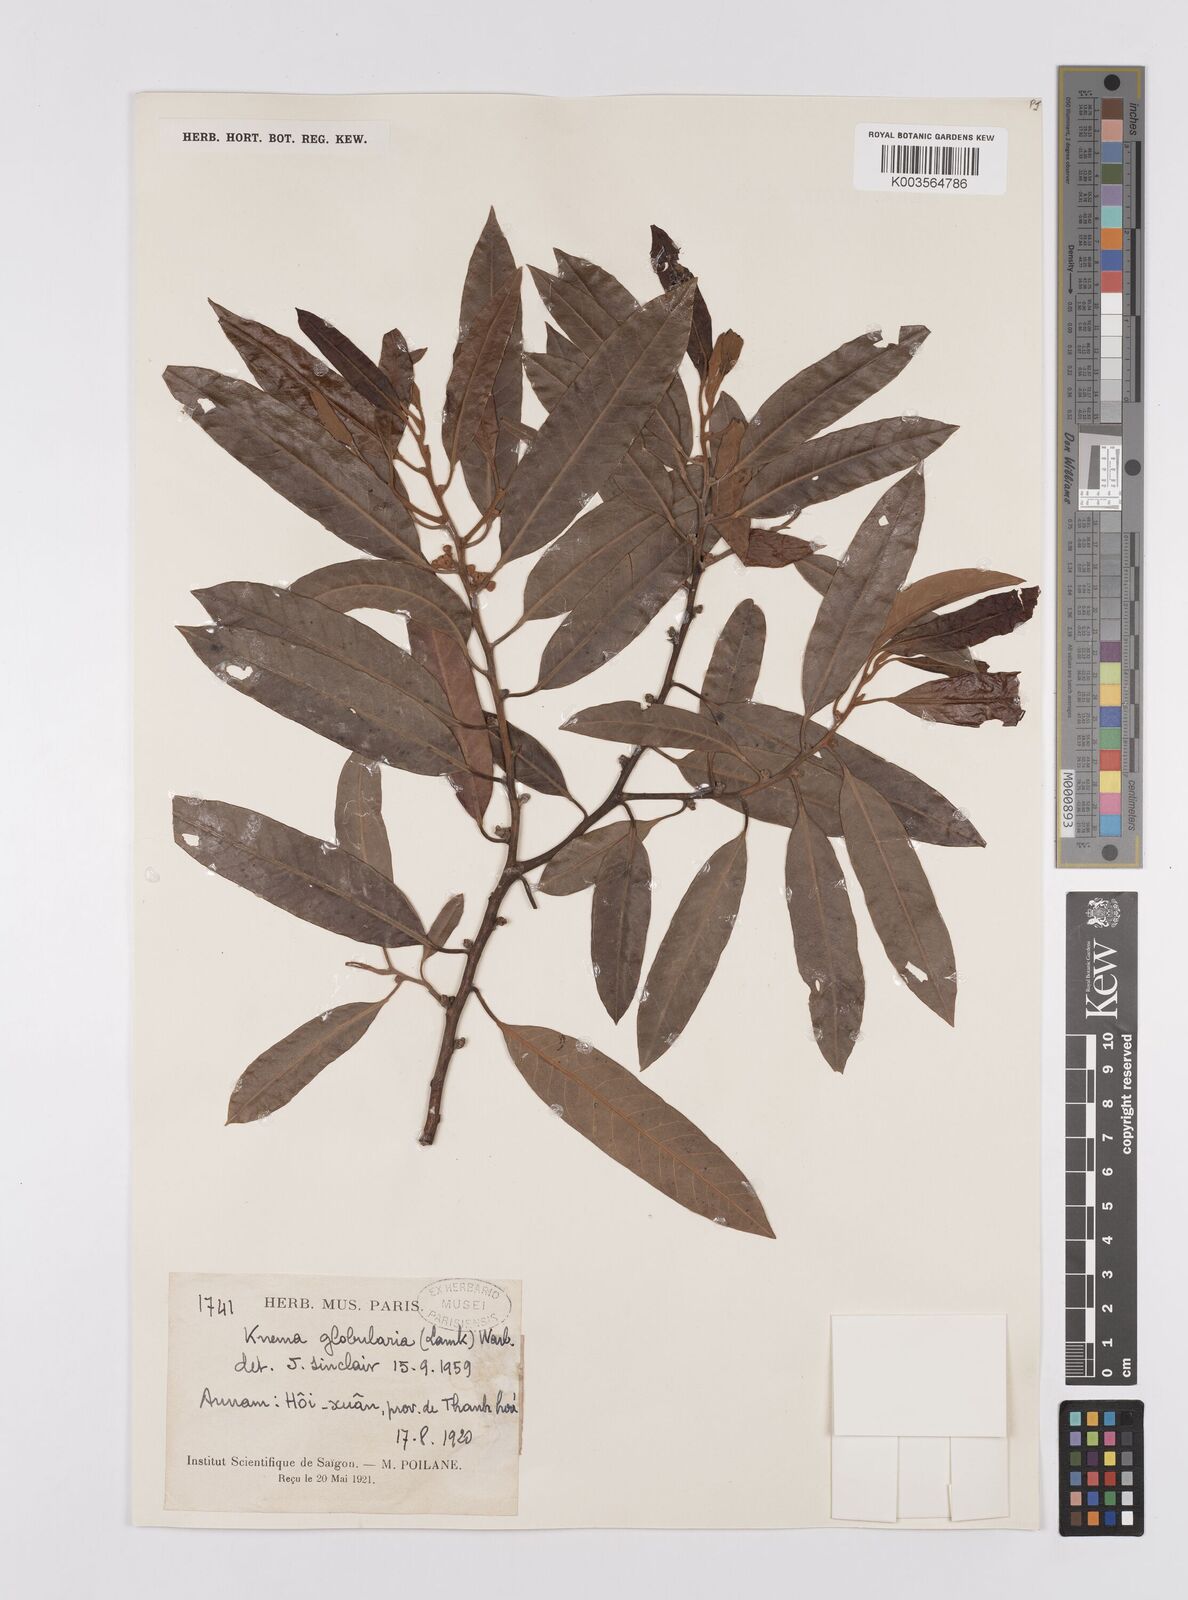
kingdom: Plantae
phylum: Tracheophyta
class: Magnoliopsida
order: Magnoliales
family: Myristicaceae
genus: Knema
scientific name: Knema globularia
